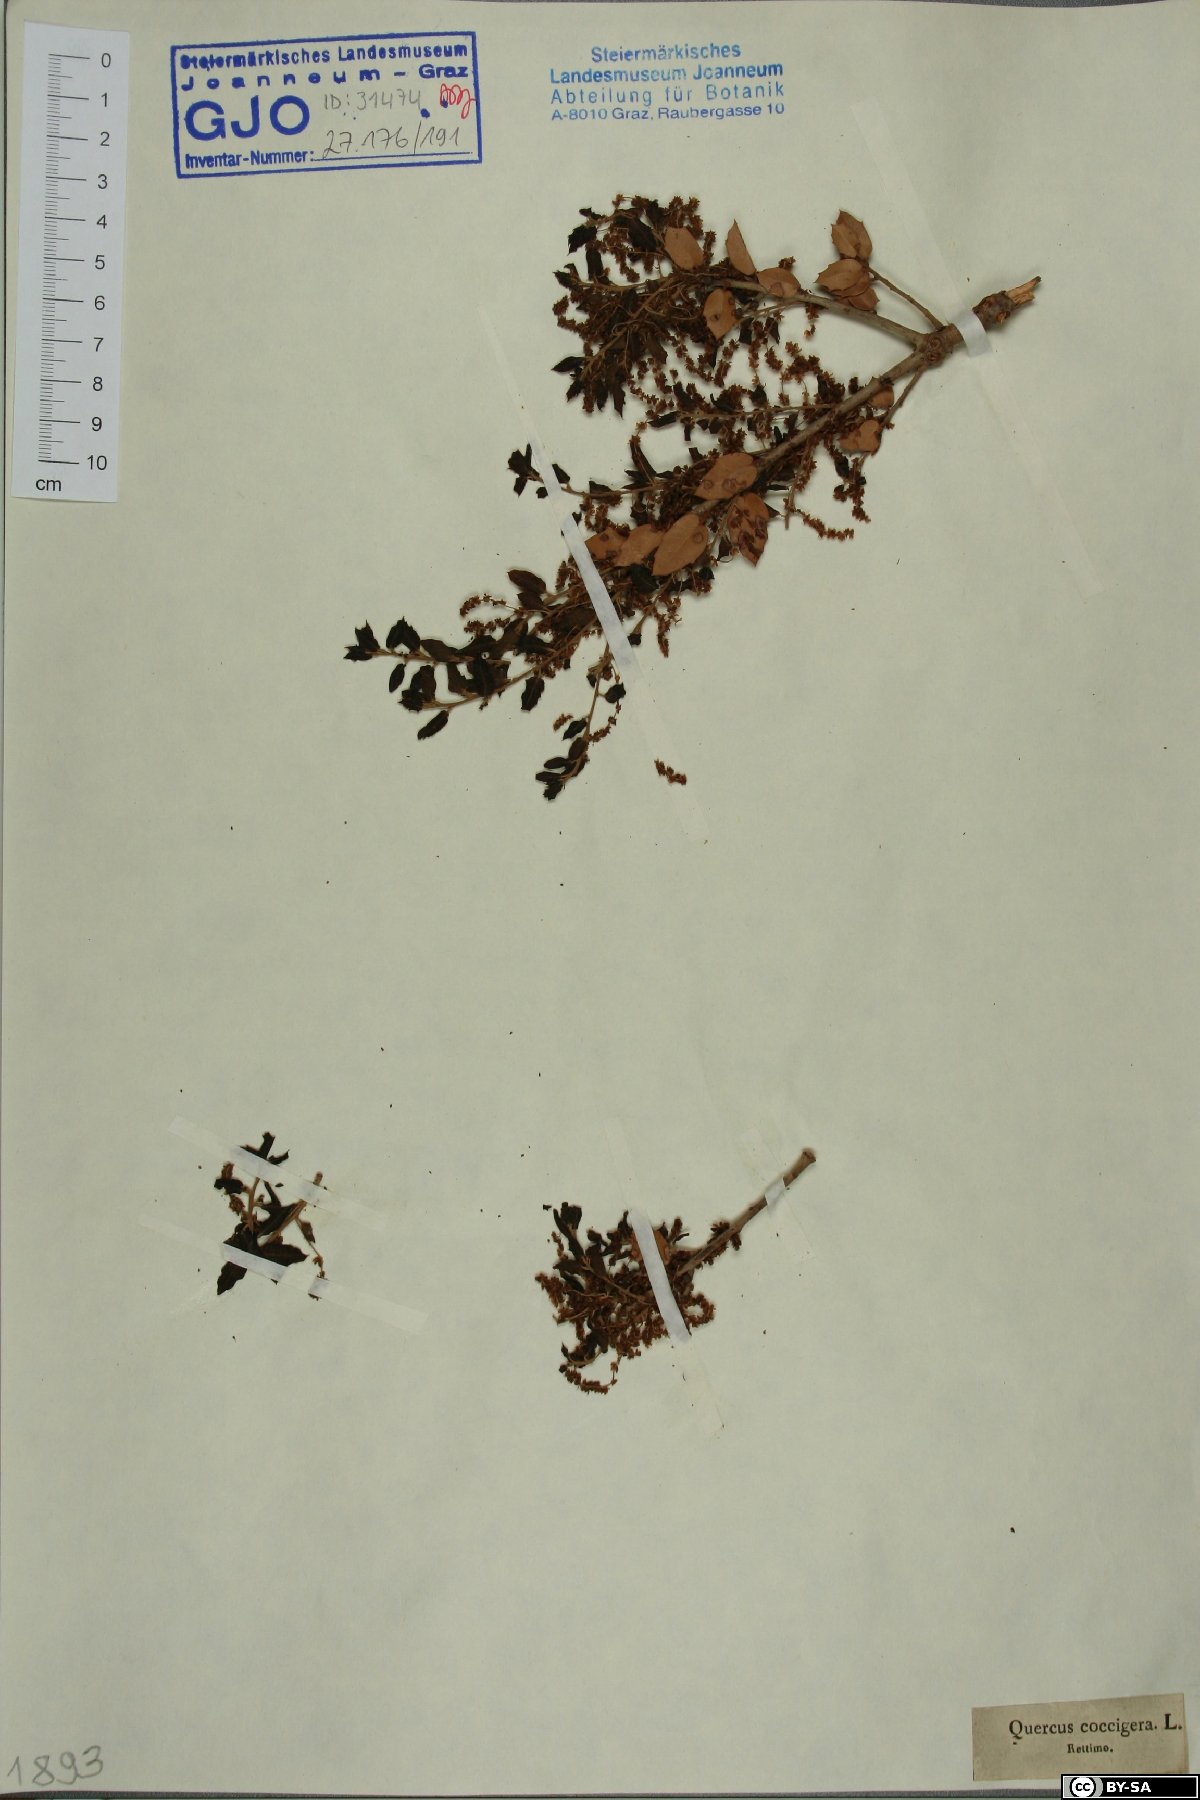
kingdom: Plantae
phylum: Tracheophyta
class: Magnoliopsida
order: Fagales
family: Fagaceae
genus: Quercus
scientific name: Quercus coccifera
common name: Kermes oak
